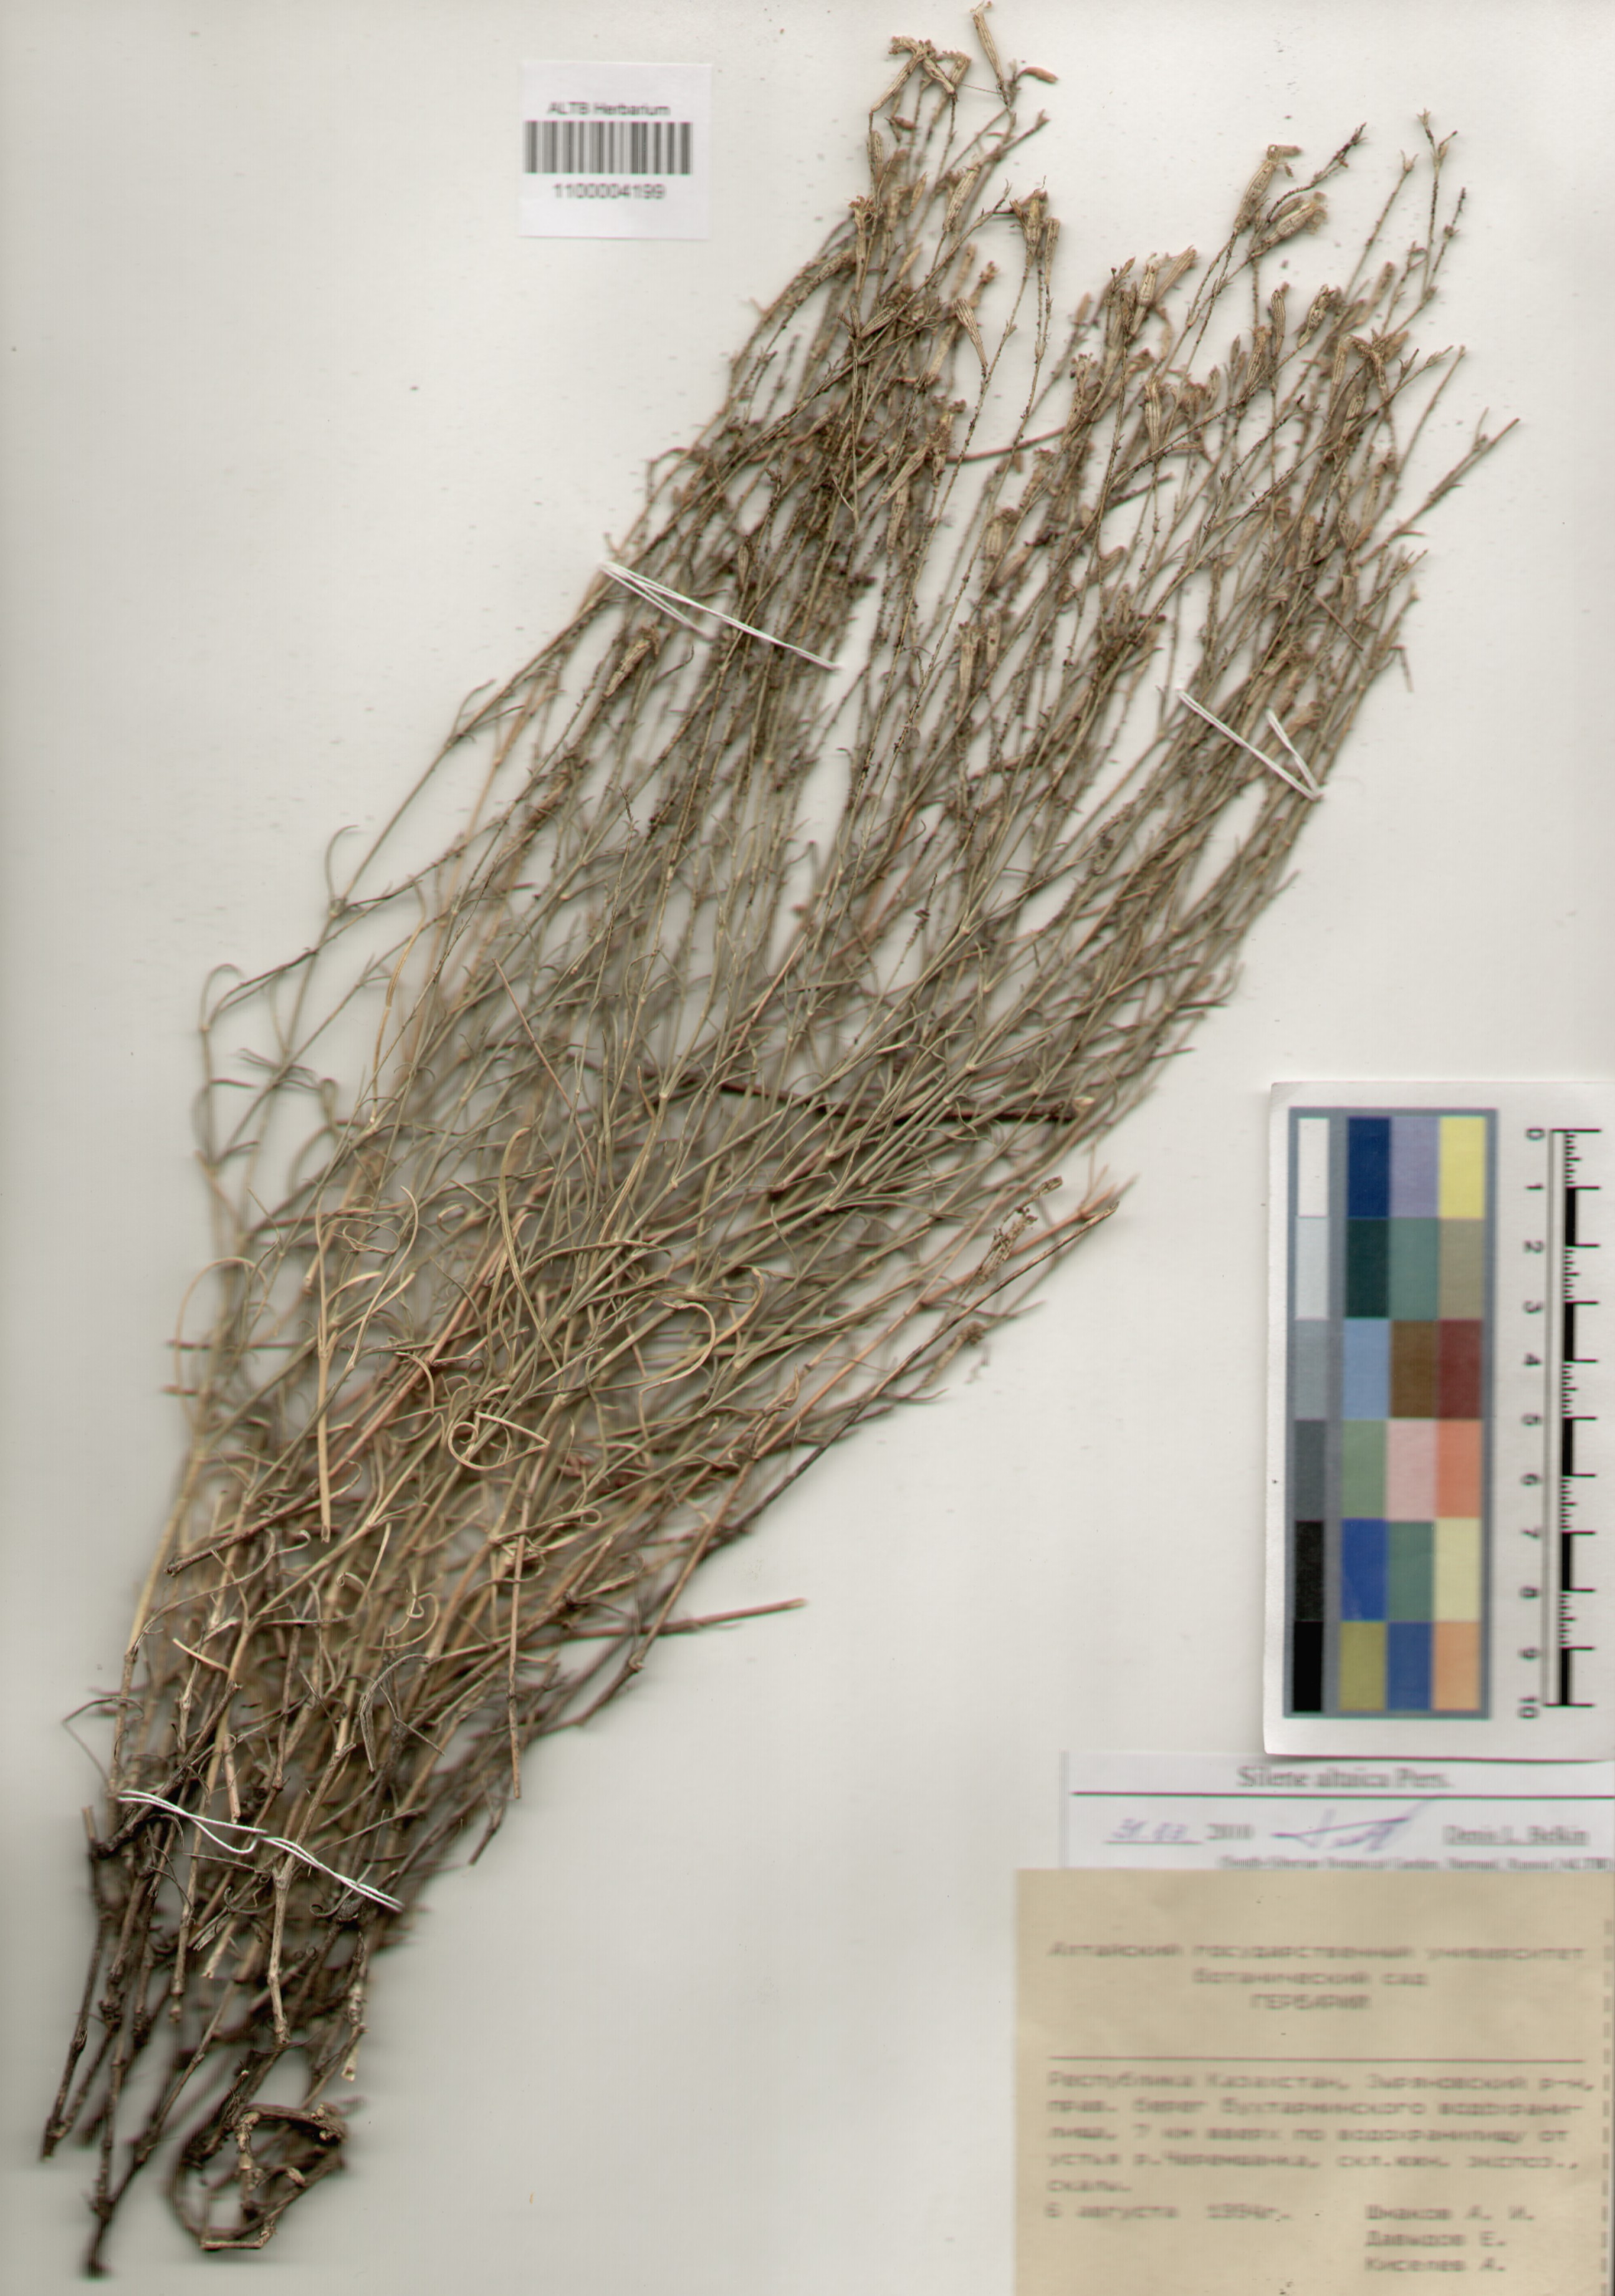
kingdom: Plantae
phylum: Tracheophyta
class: Magnoliopsida
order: Caryophyllales
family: Caryophyllaceae
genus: Silene
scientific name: Silene altaica
